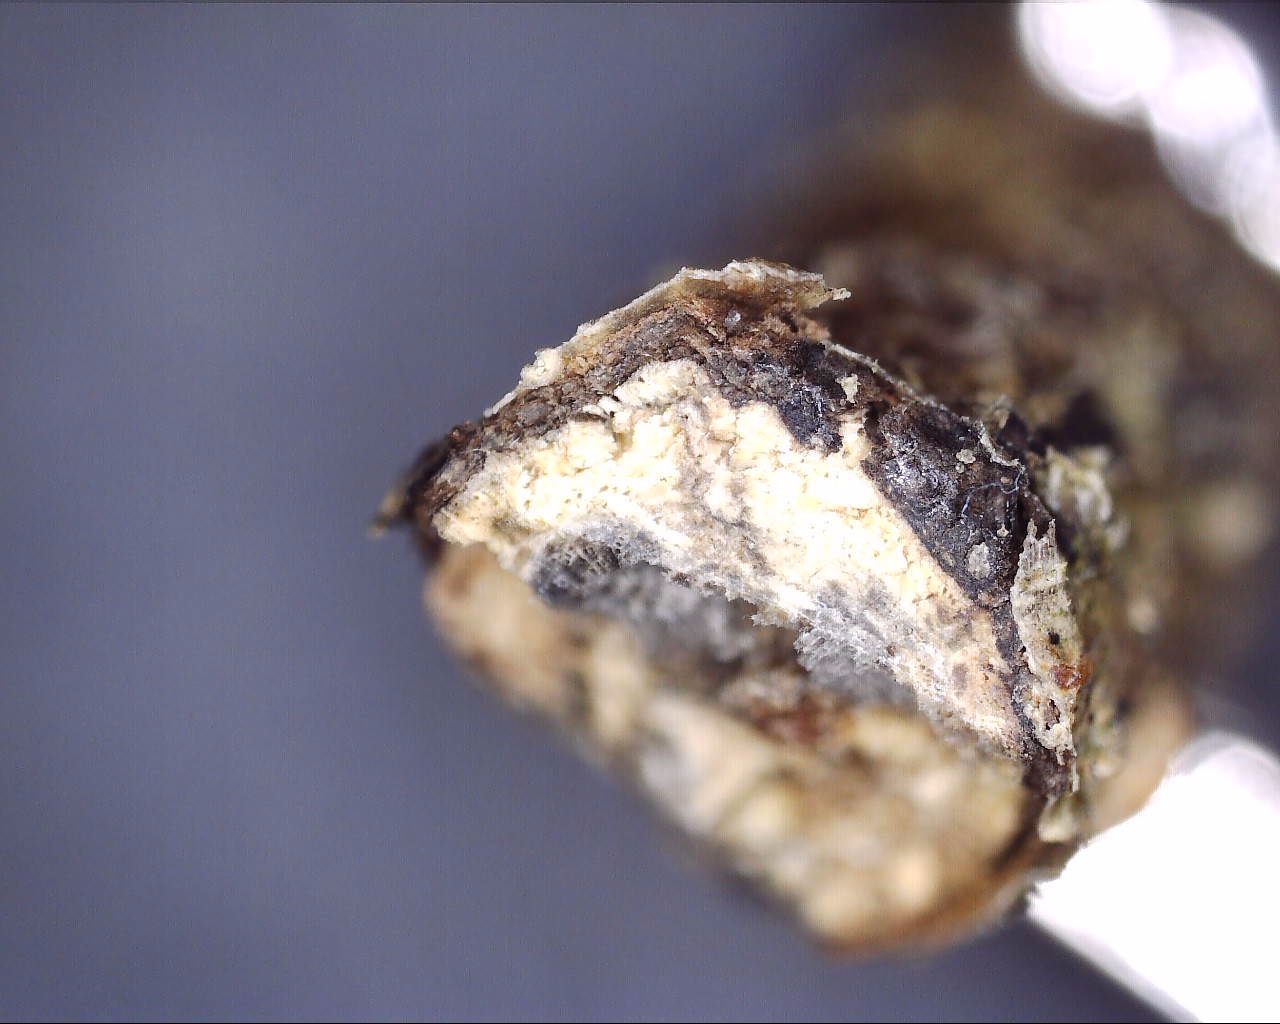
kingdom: Fungi
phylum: Ascomycota
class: Dothideomycetes
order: Pleosporales
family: Pleosporaceae
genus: Pleospora
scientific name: Pleospora cytisi
